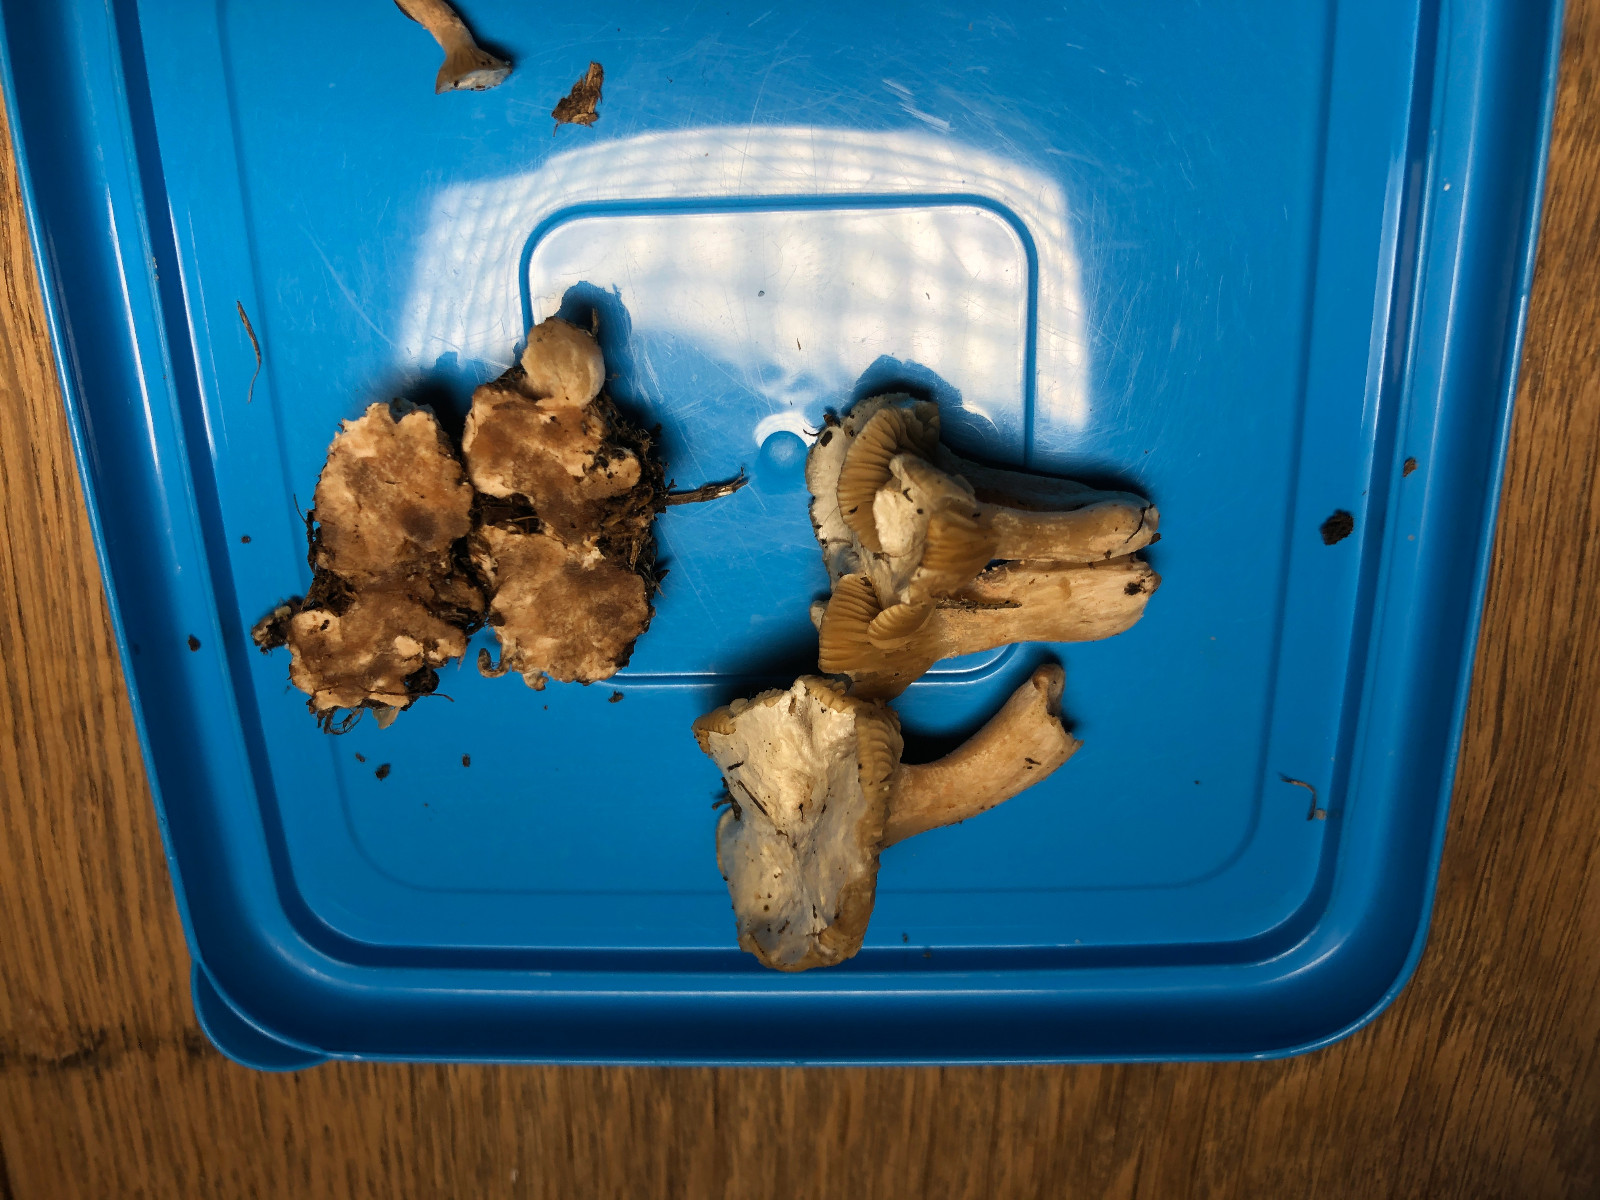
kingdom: Fungi
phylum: Basidiomycota
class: Agaricomycetes
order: Agaricales
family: Tricholomataceae
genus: Ripartites
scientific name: Ripartites
